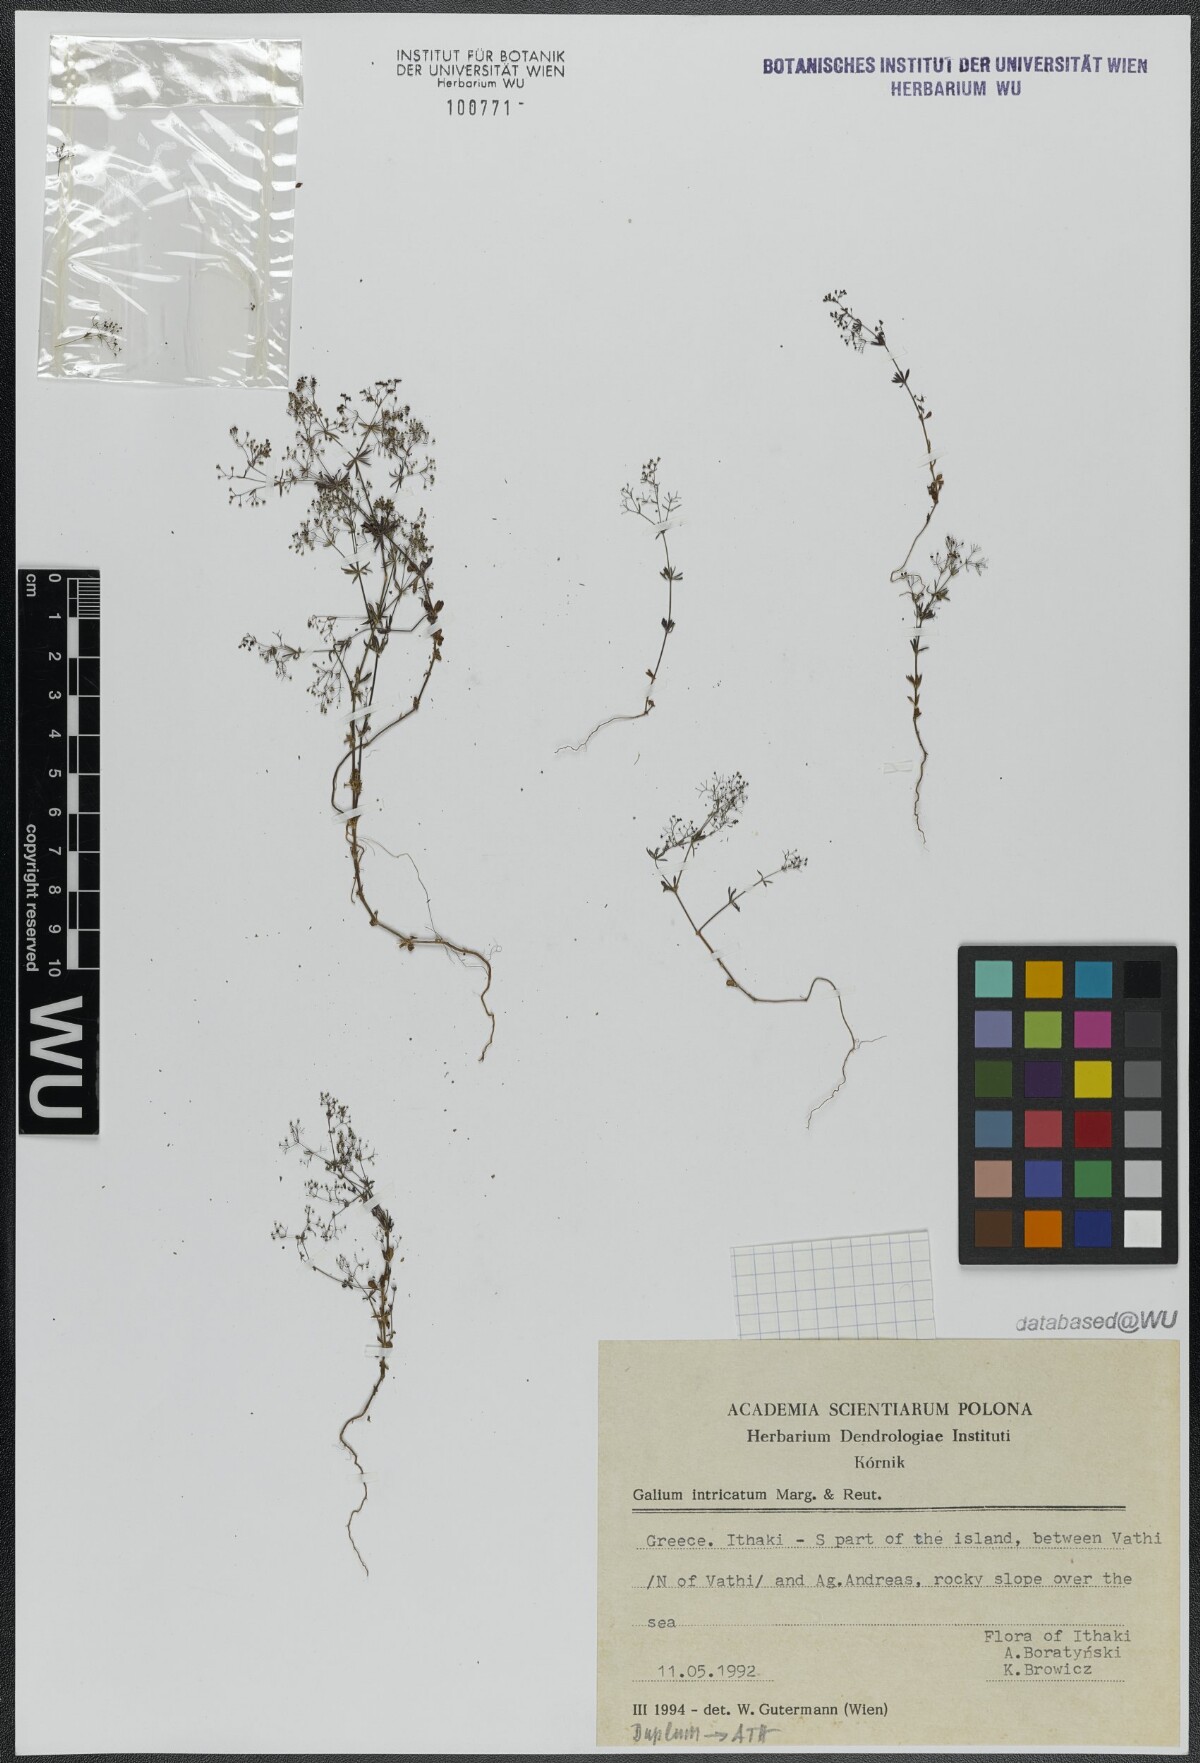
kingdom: Plantae
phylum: Tracheophyta
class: Magnoliopsida
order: Gentianales
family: Rubiaceae
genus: Galium
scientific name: Galium intricatum
